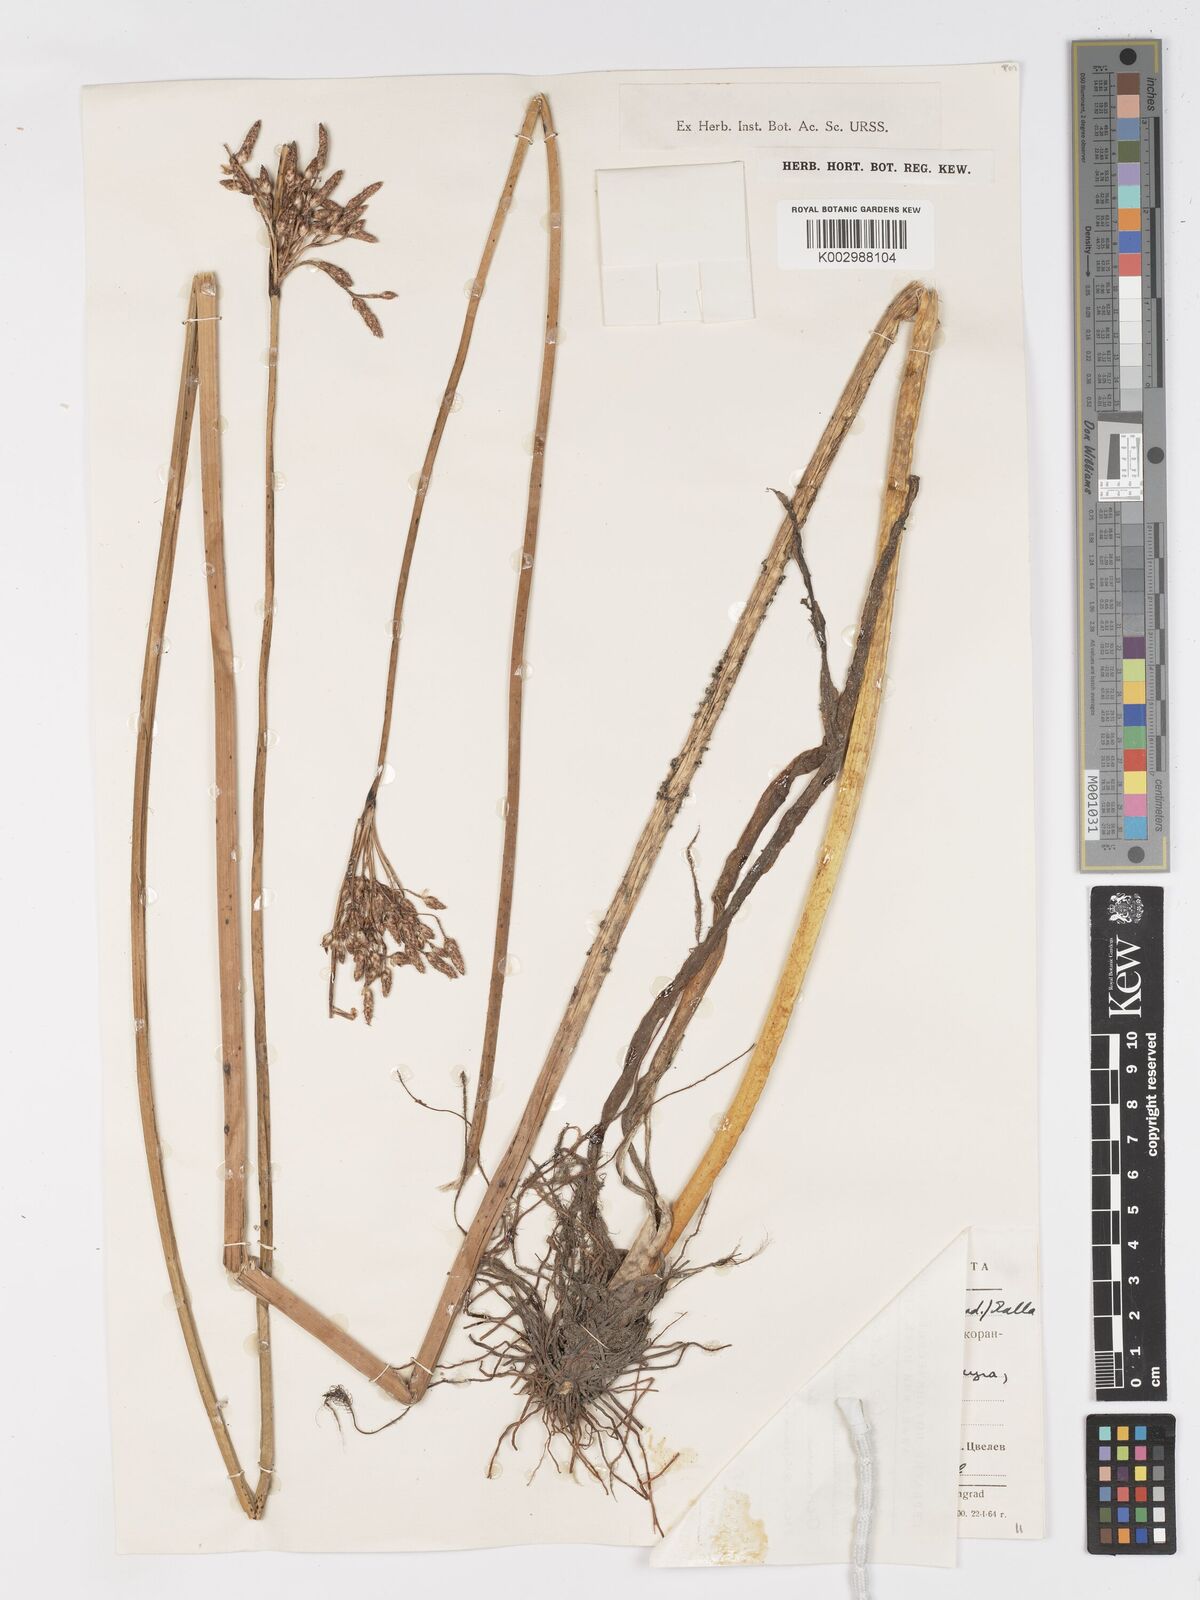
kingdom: Plantae
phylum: Tracheophyta
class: Liliopsida
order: Poales
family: Cyperaceae
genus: Schoenoplectus
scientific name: Schoenoplectus litoralis
